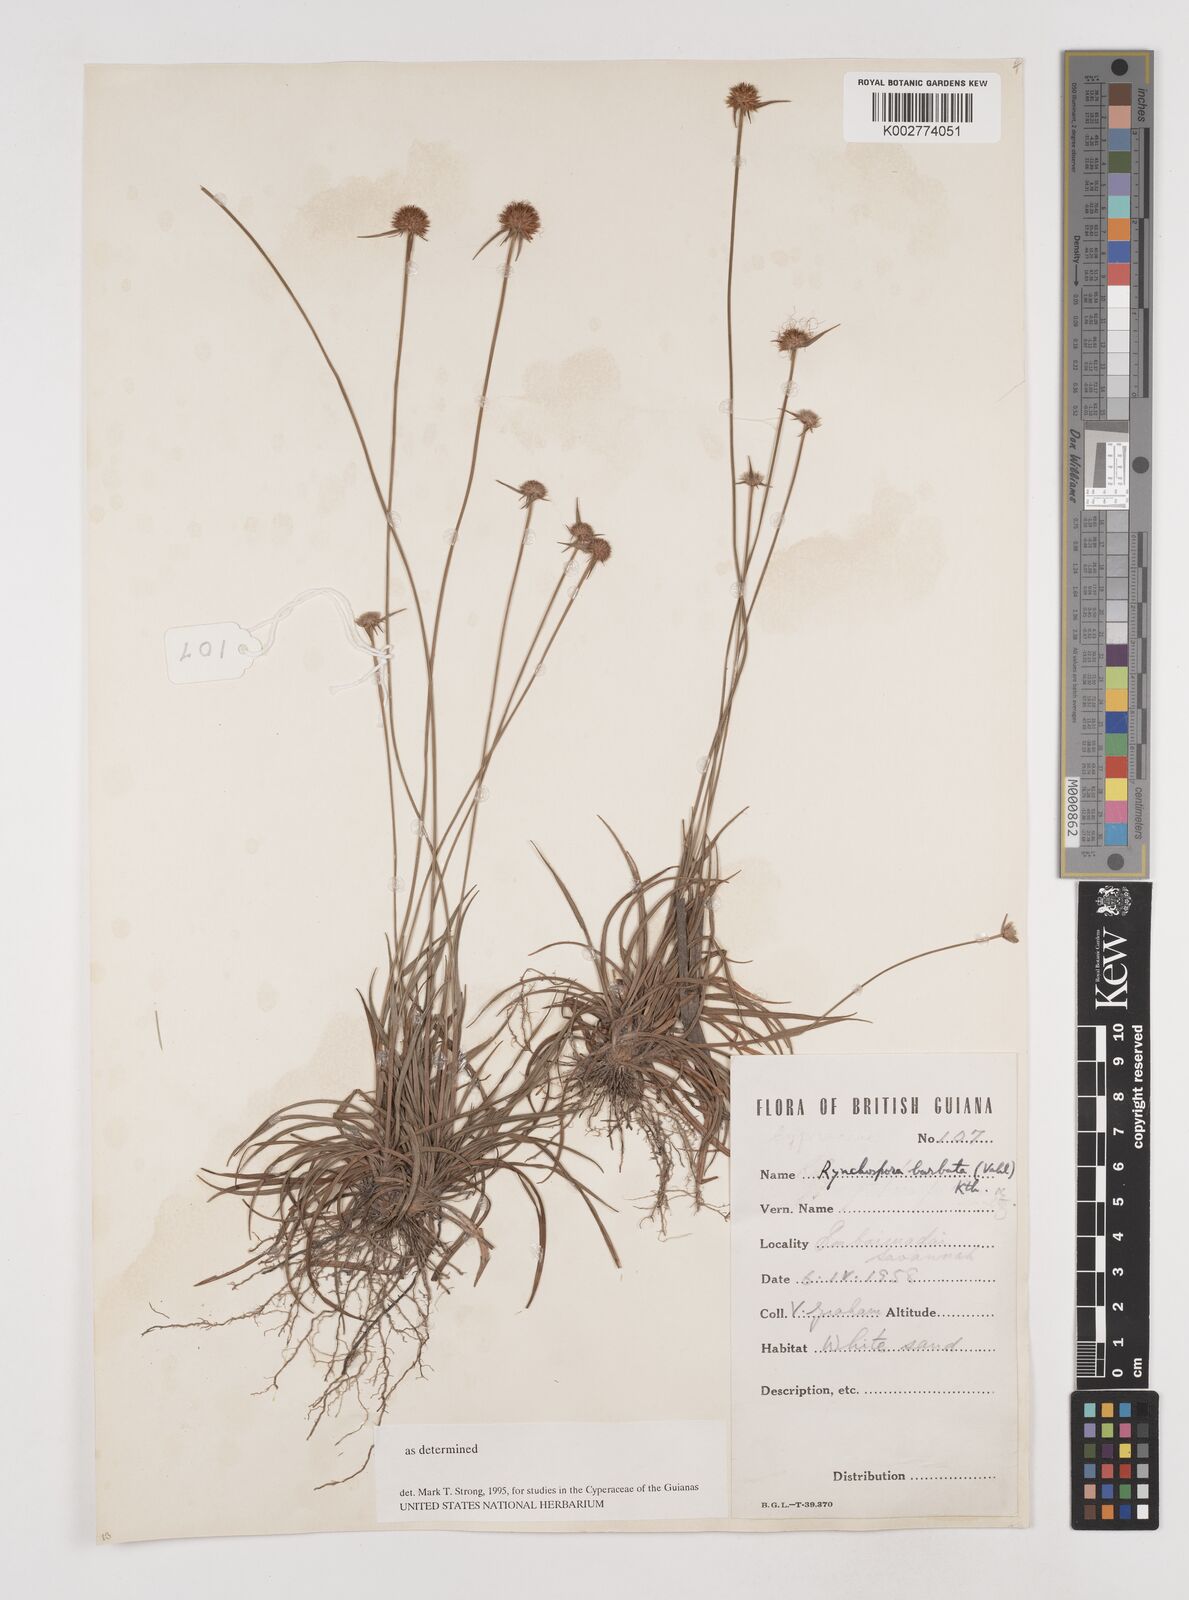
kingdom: Plantae
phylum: Tracheophyta
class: Liliopsida
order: Poales
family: Cyperaceae
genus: Rhynchospora
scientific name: Rhynchospora barbata
